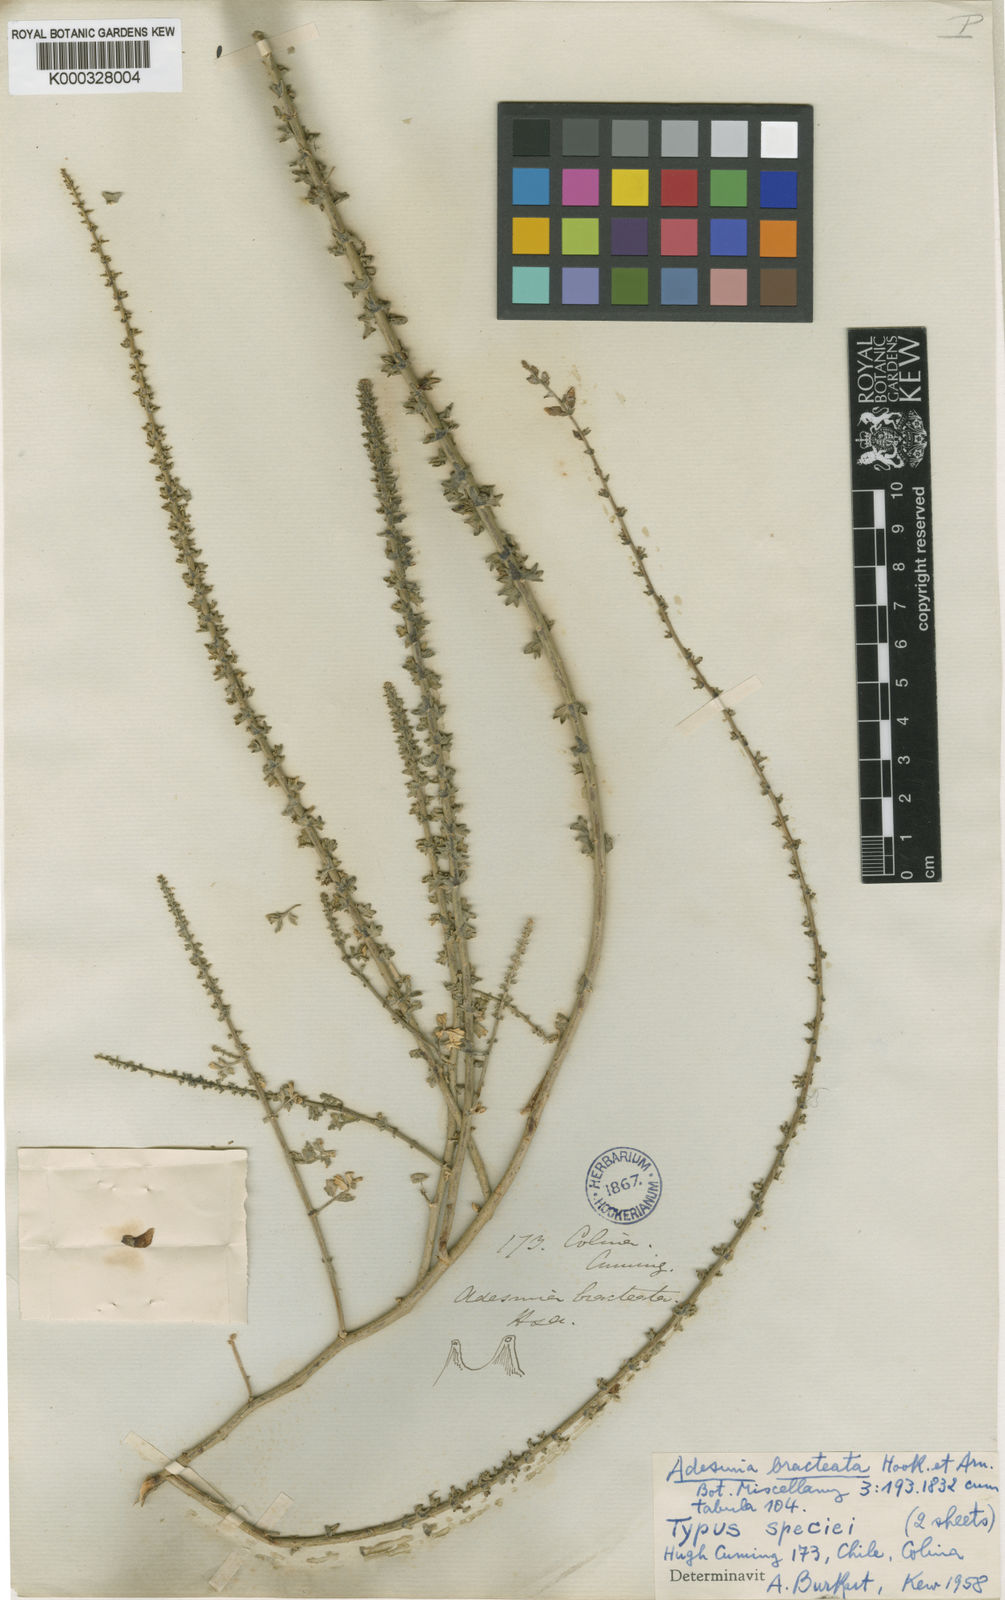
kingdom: Plantae
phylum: Tracheophyta
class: Magnoliopsida
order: Fabales
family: Fabaceae
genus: Adesmia
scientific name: Adesmia bracteata
